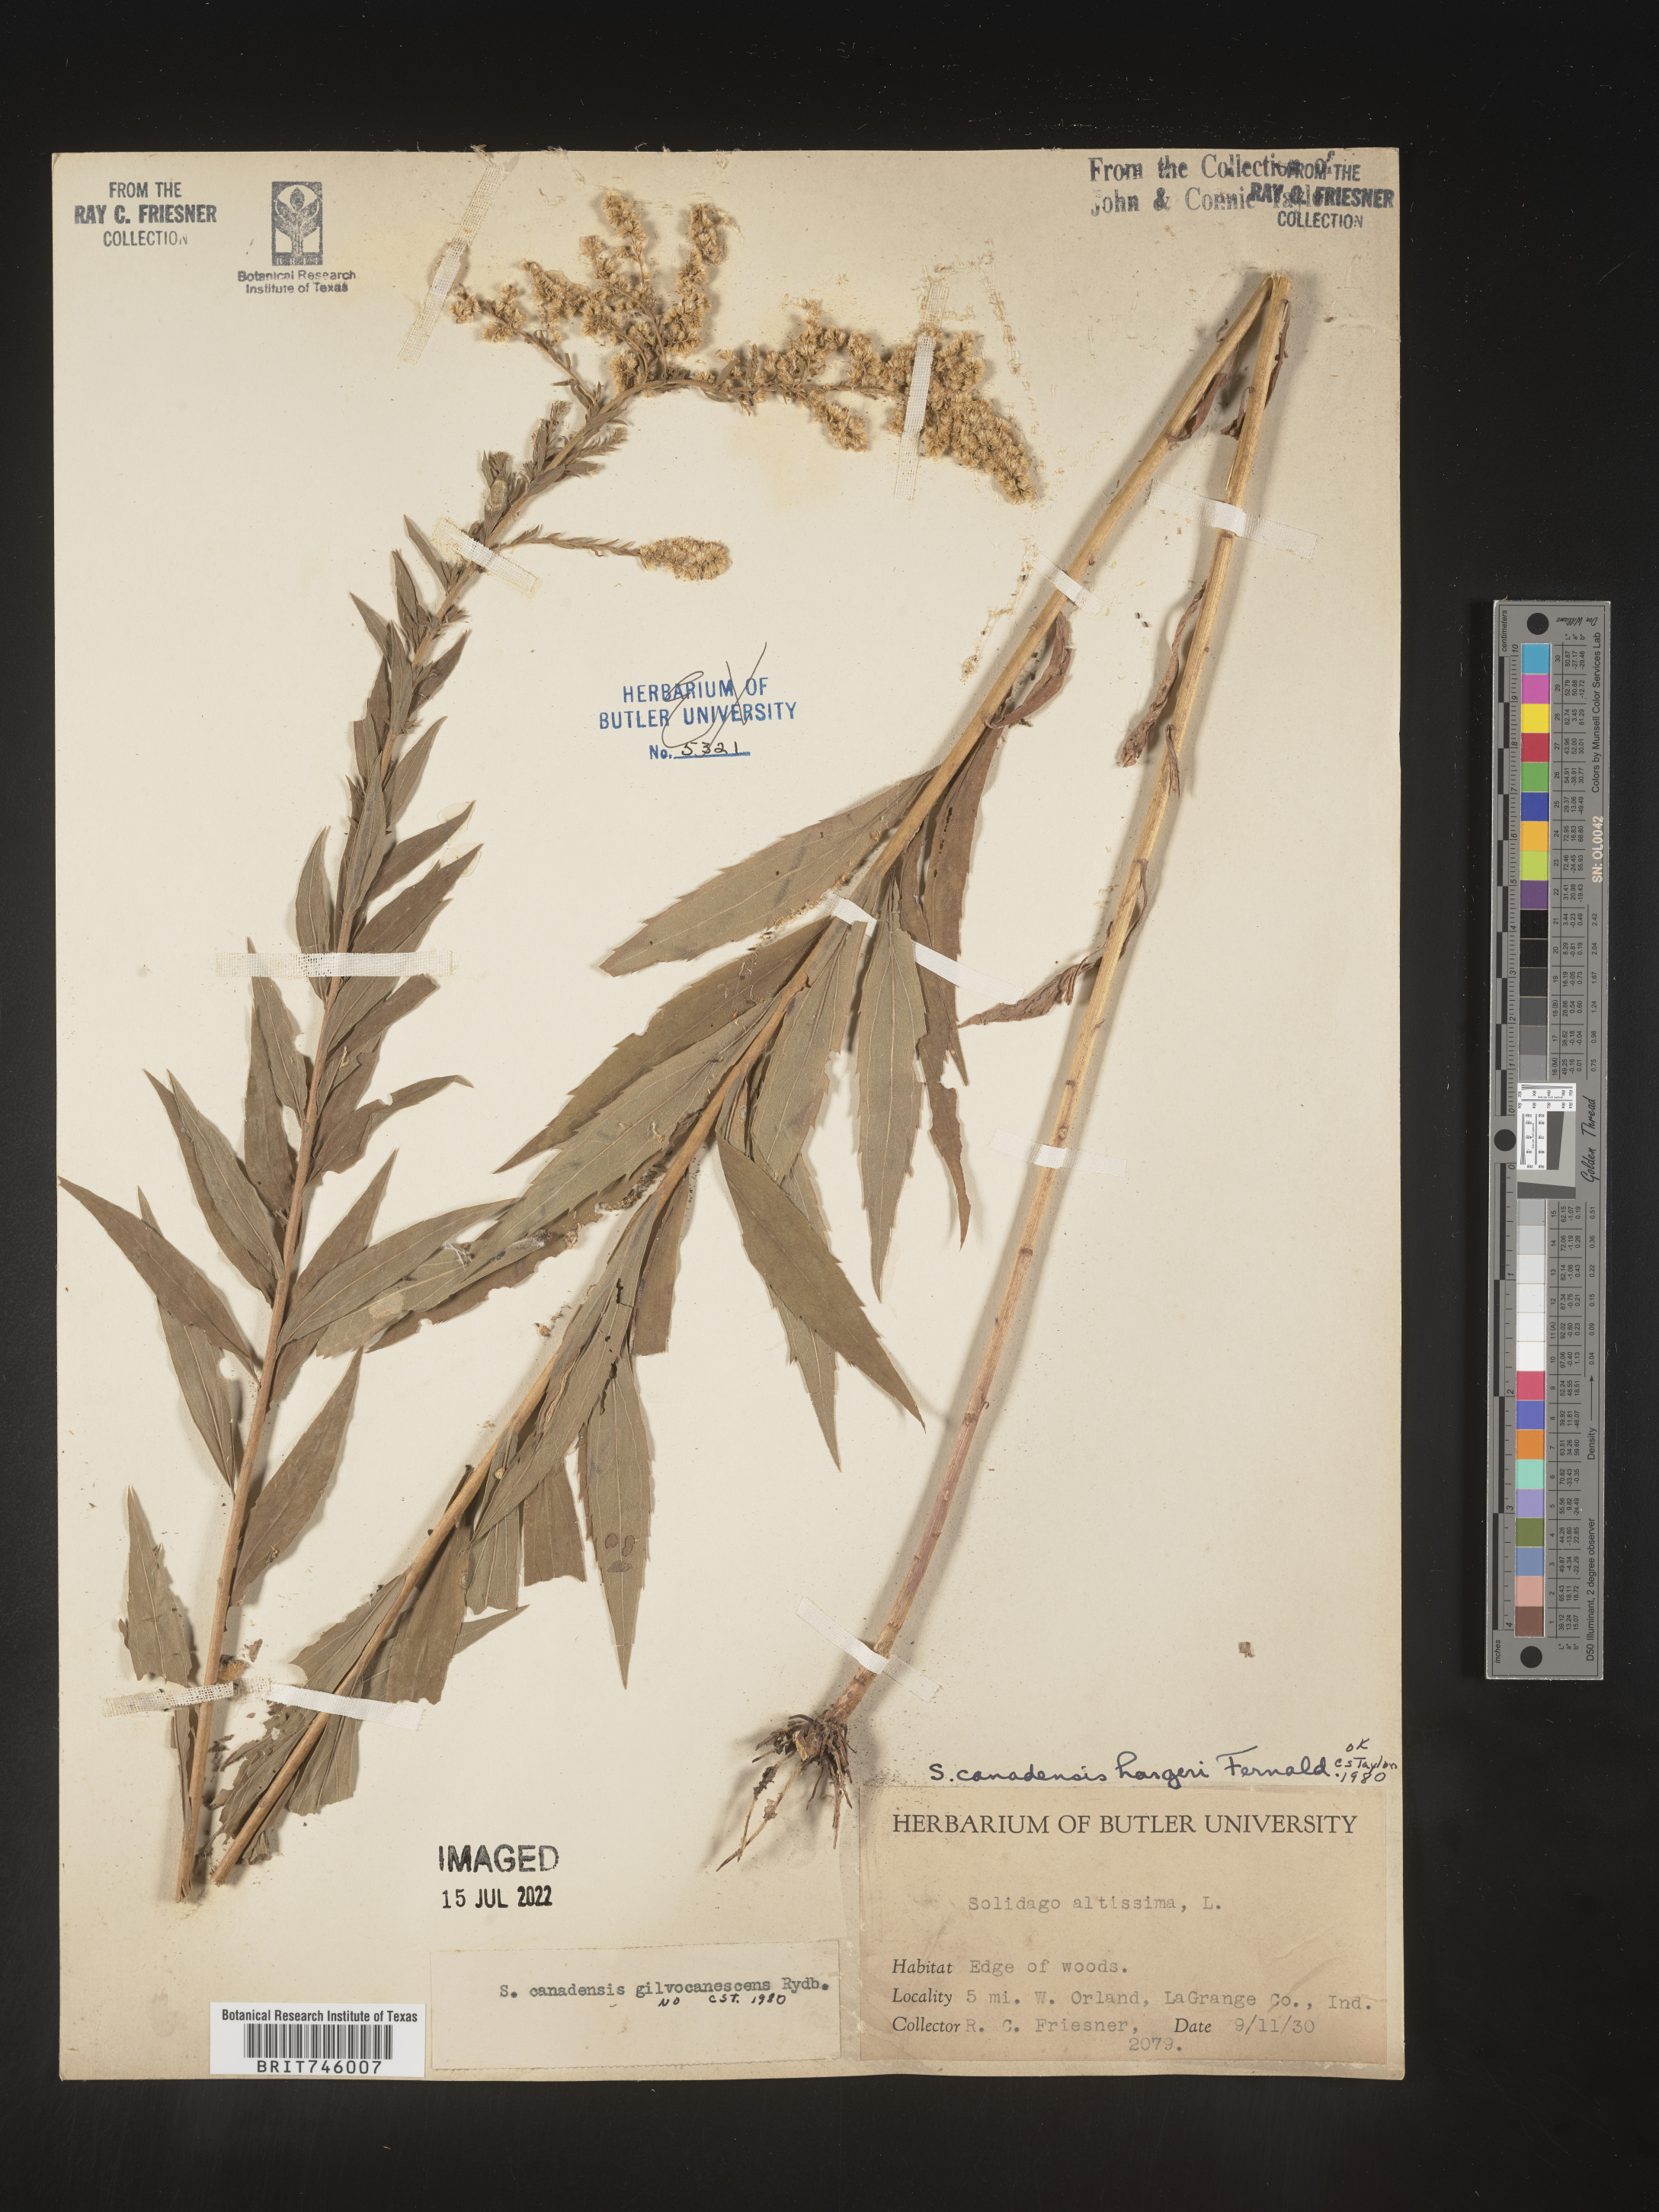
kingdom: Plantae
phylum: Tracheophyta
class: Magnoliopsida
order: Asterales
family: Asteraceae
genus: Solidago
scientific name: Solidago canadensis
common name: Canada goldenrod
